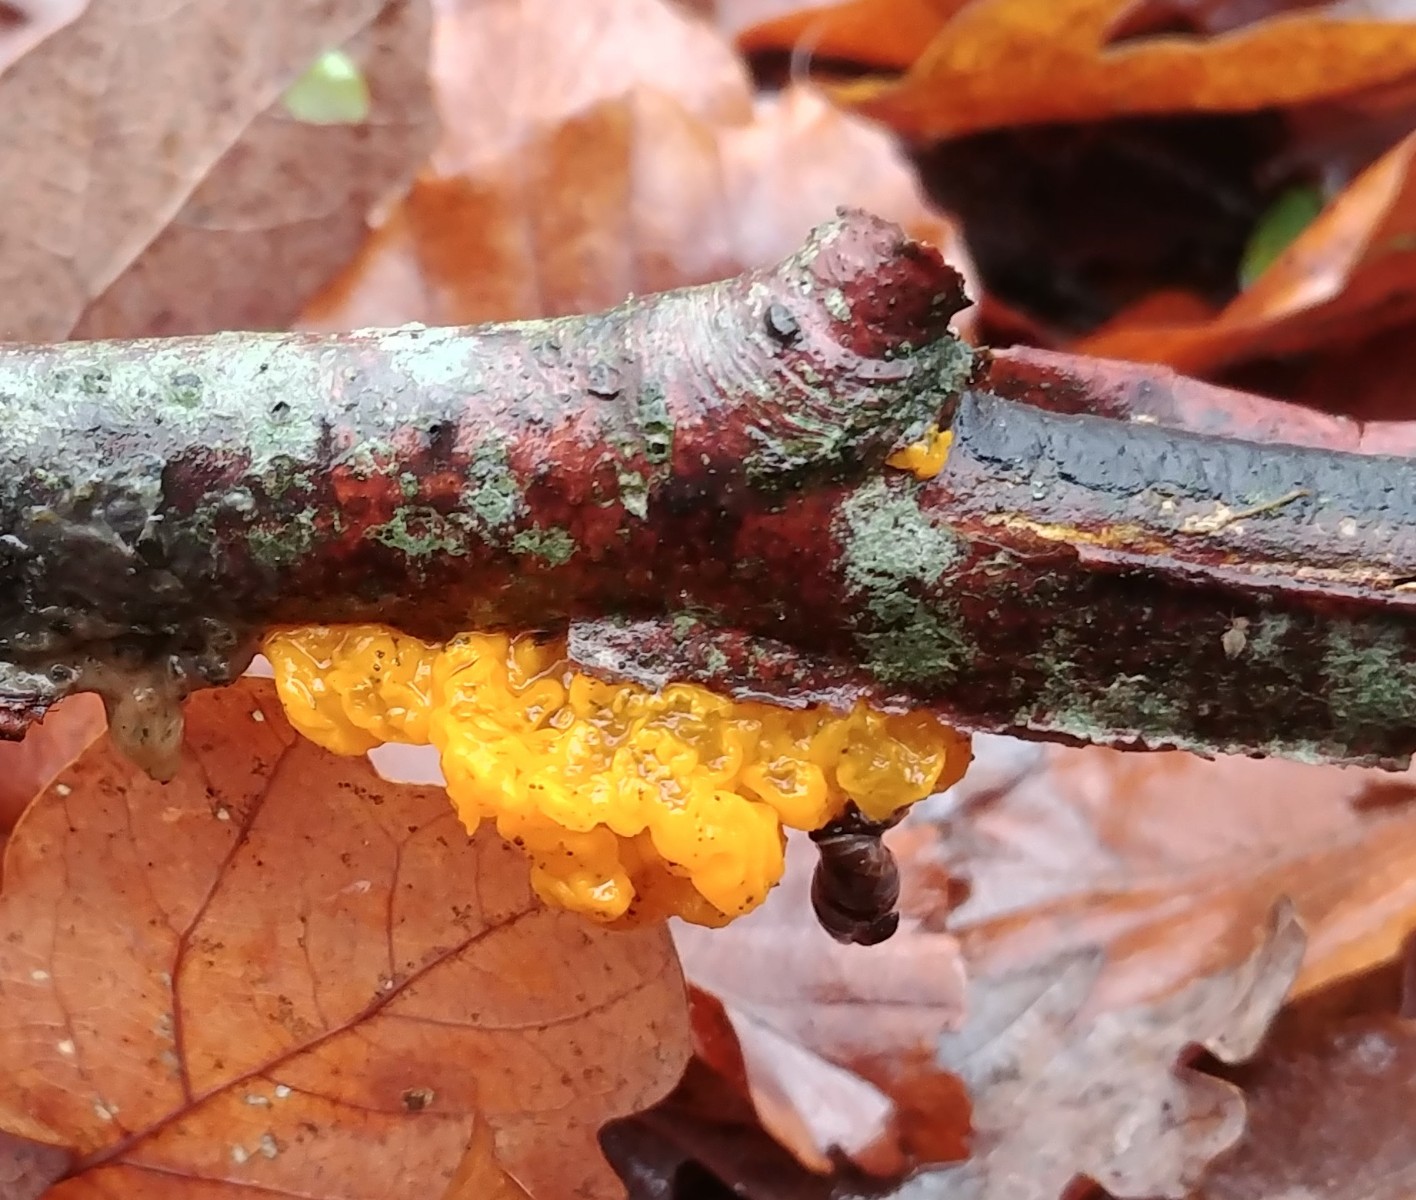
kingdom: Fungi
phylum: Basidiomycota
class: Tremellomycetes
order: Tremellales
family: Tremellaceae
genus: Tremella
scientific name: Tremella mesenterica
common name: gul bævresvamp
